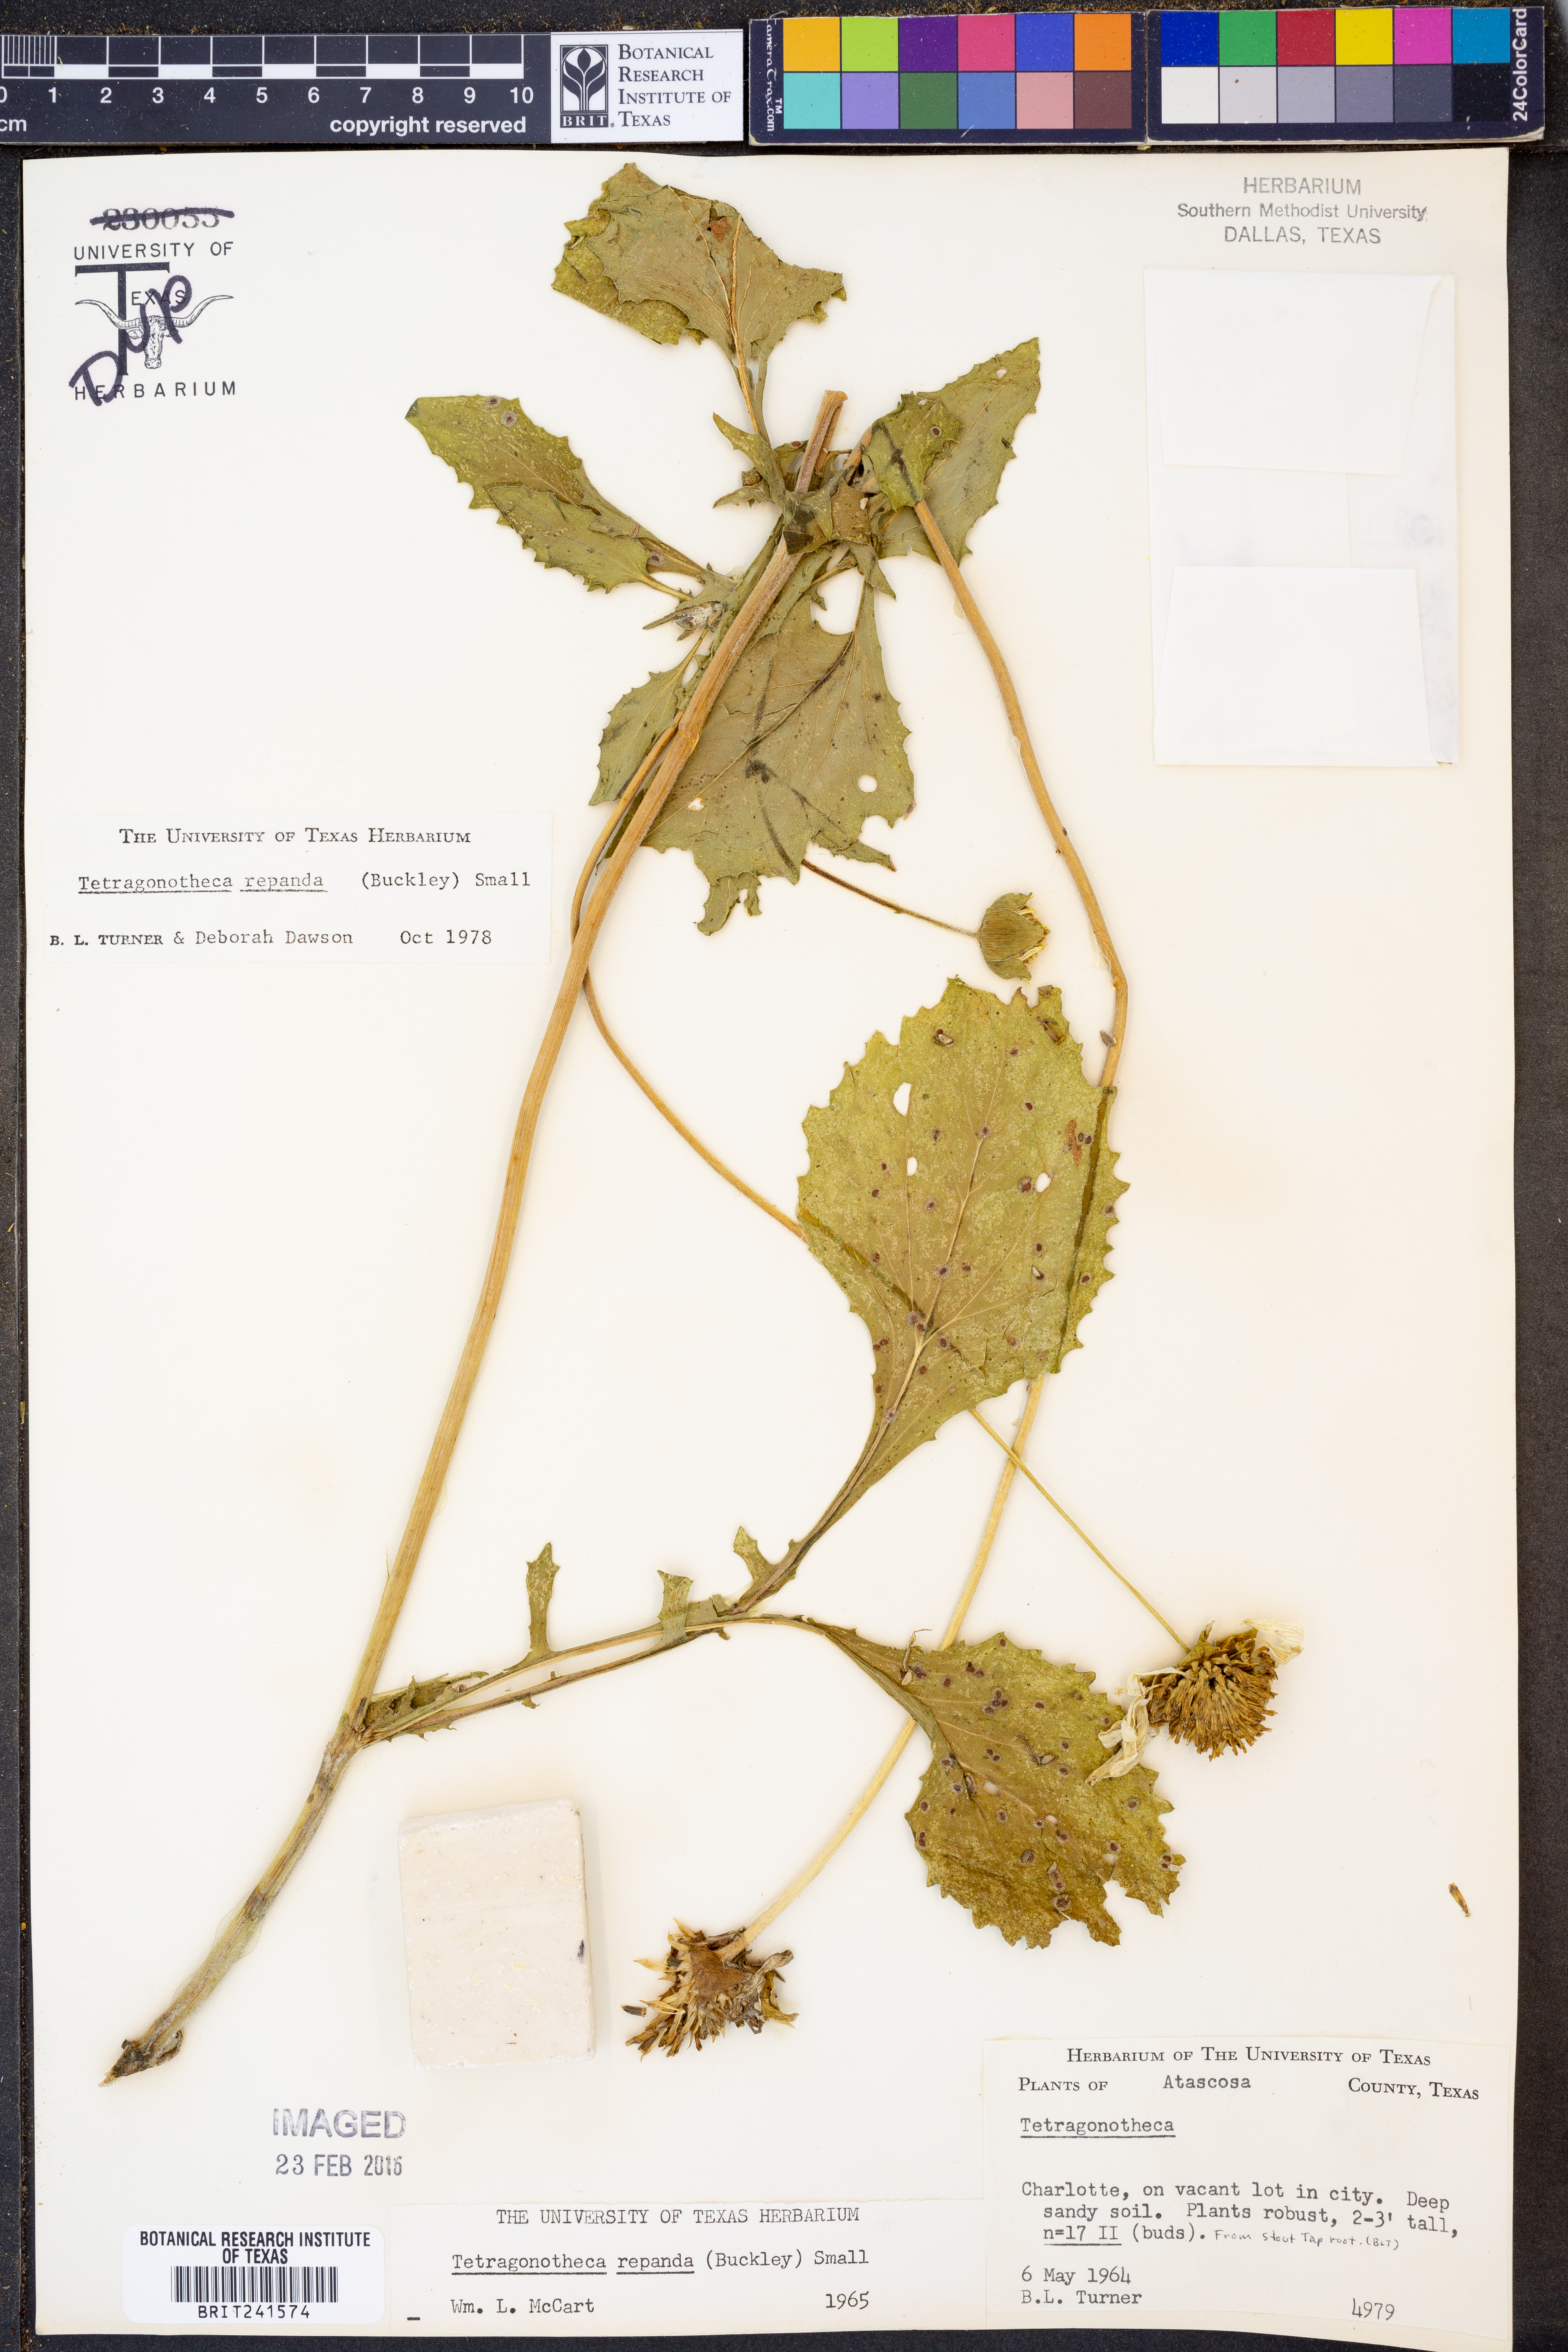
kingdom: Plantae
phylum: Tracheophyta
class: Magnoliopsida
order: Asterales
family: Asteraceae
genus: Tetragonotheca
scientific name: Tetragonotheca repanda
